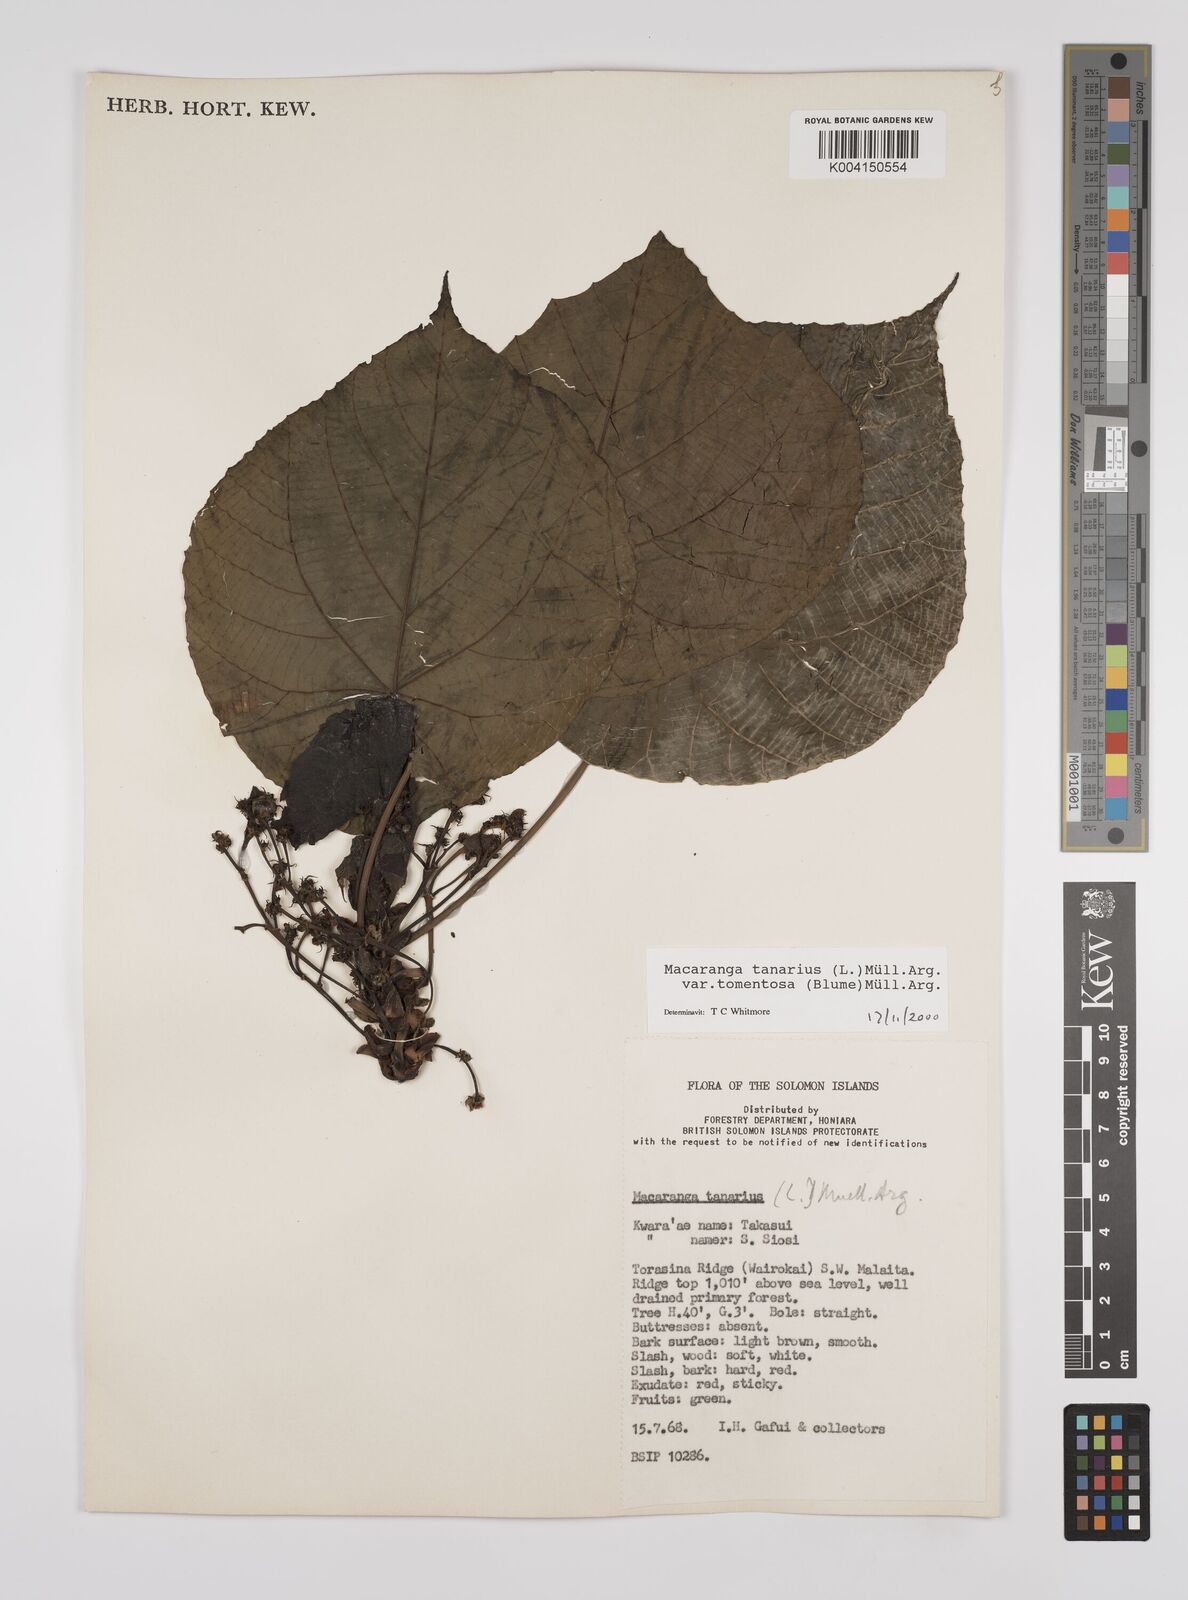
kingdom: Plantae
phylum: Tracheophyta
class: Magnoliopsida
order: Malpighiales
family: Euphorbiaceae
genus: Macaranga
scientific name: Macaranga tanarius
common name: Parasol leaf tree
